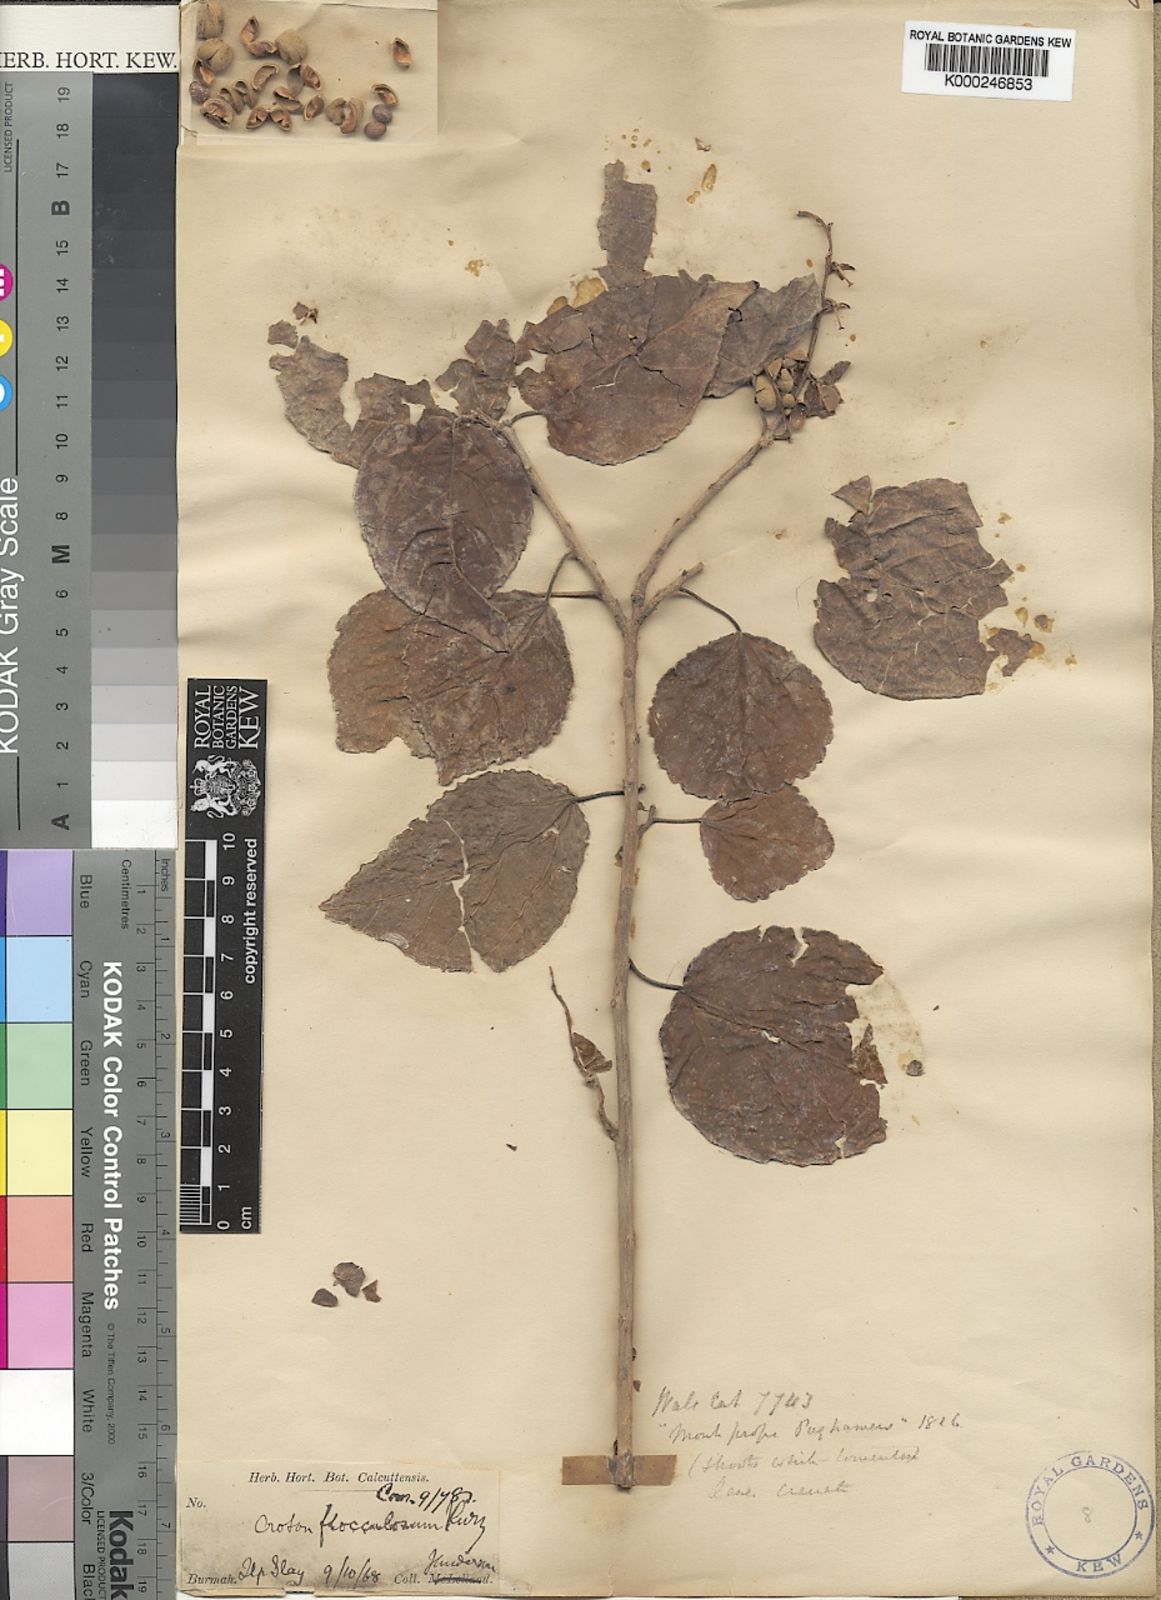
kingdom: Plantae
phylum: Tracheophyta
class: Magnoliopsida
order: Malpighiales
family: Euphorbiaceae
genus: Croton
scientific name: Croton kurzii
